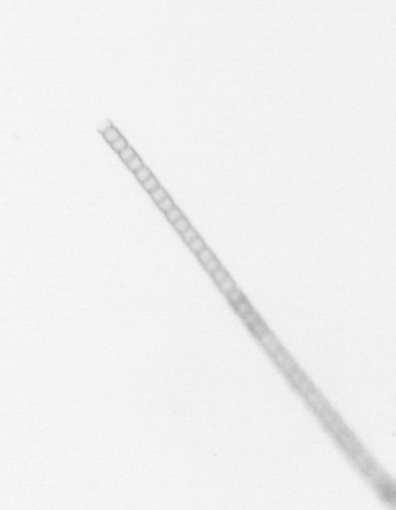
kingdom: Chromista
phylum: Ochrophyta
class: Bacillariophyceae
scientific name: Bacillariophyceae
